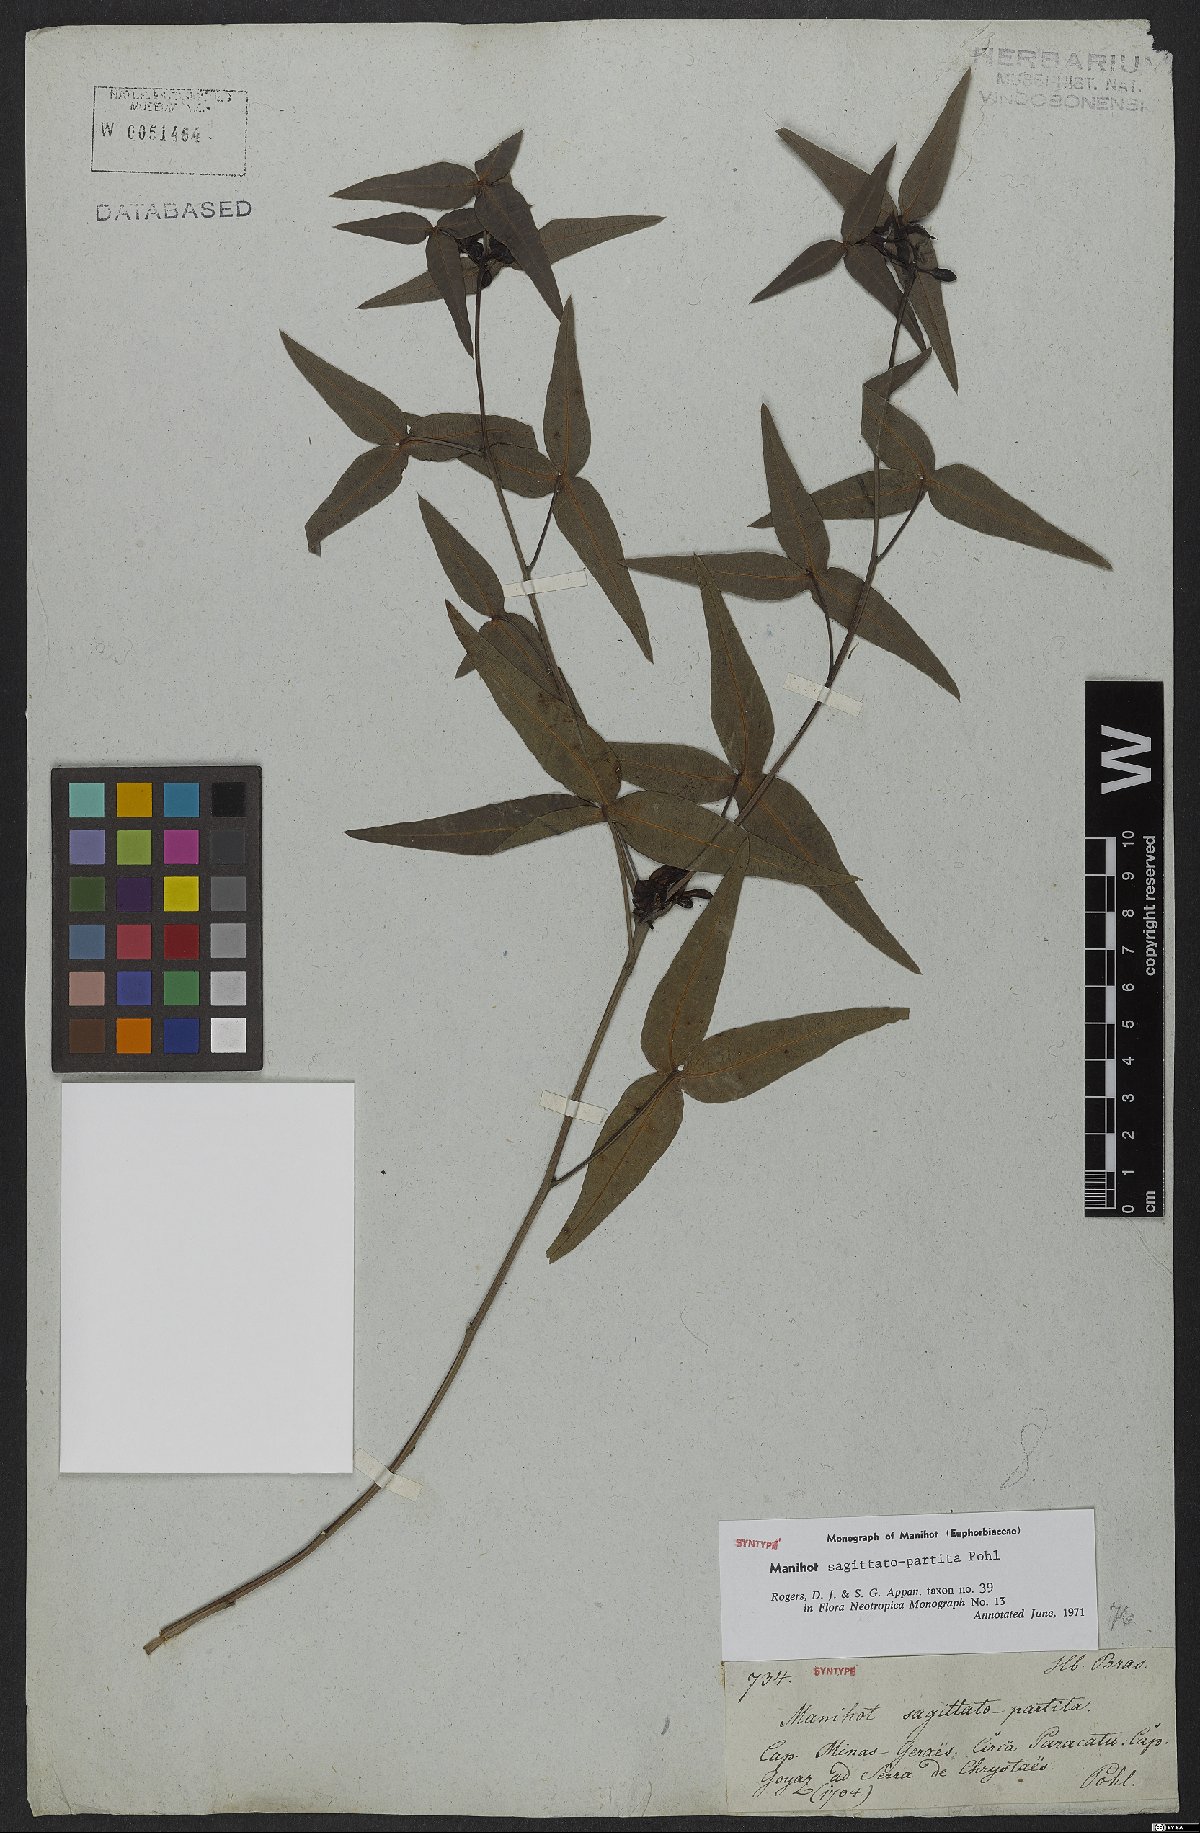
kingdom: Plantae
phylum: Tracheophyta
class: Magnoliopsida
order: Malpighiales
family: Euphorbiaceae
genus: Manihot
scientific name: Manihot sagittatopartita
